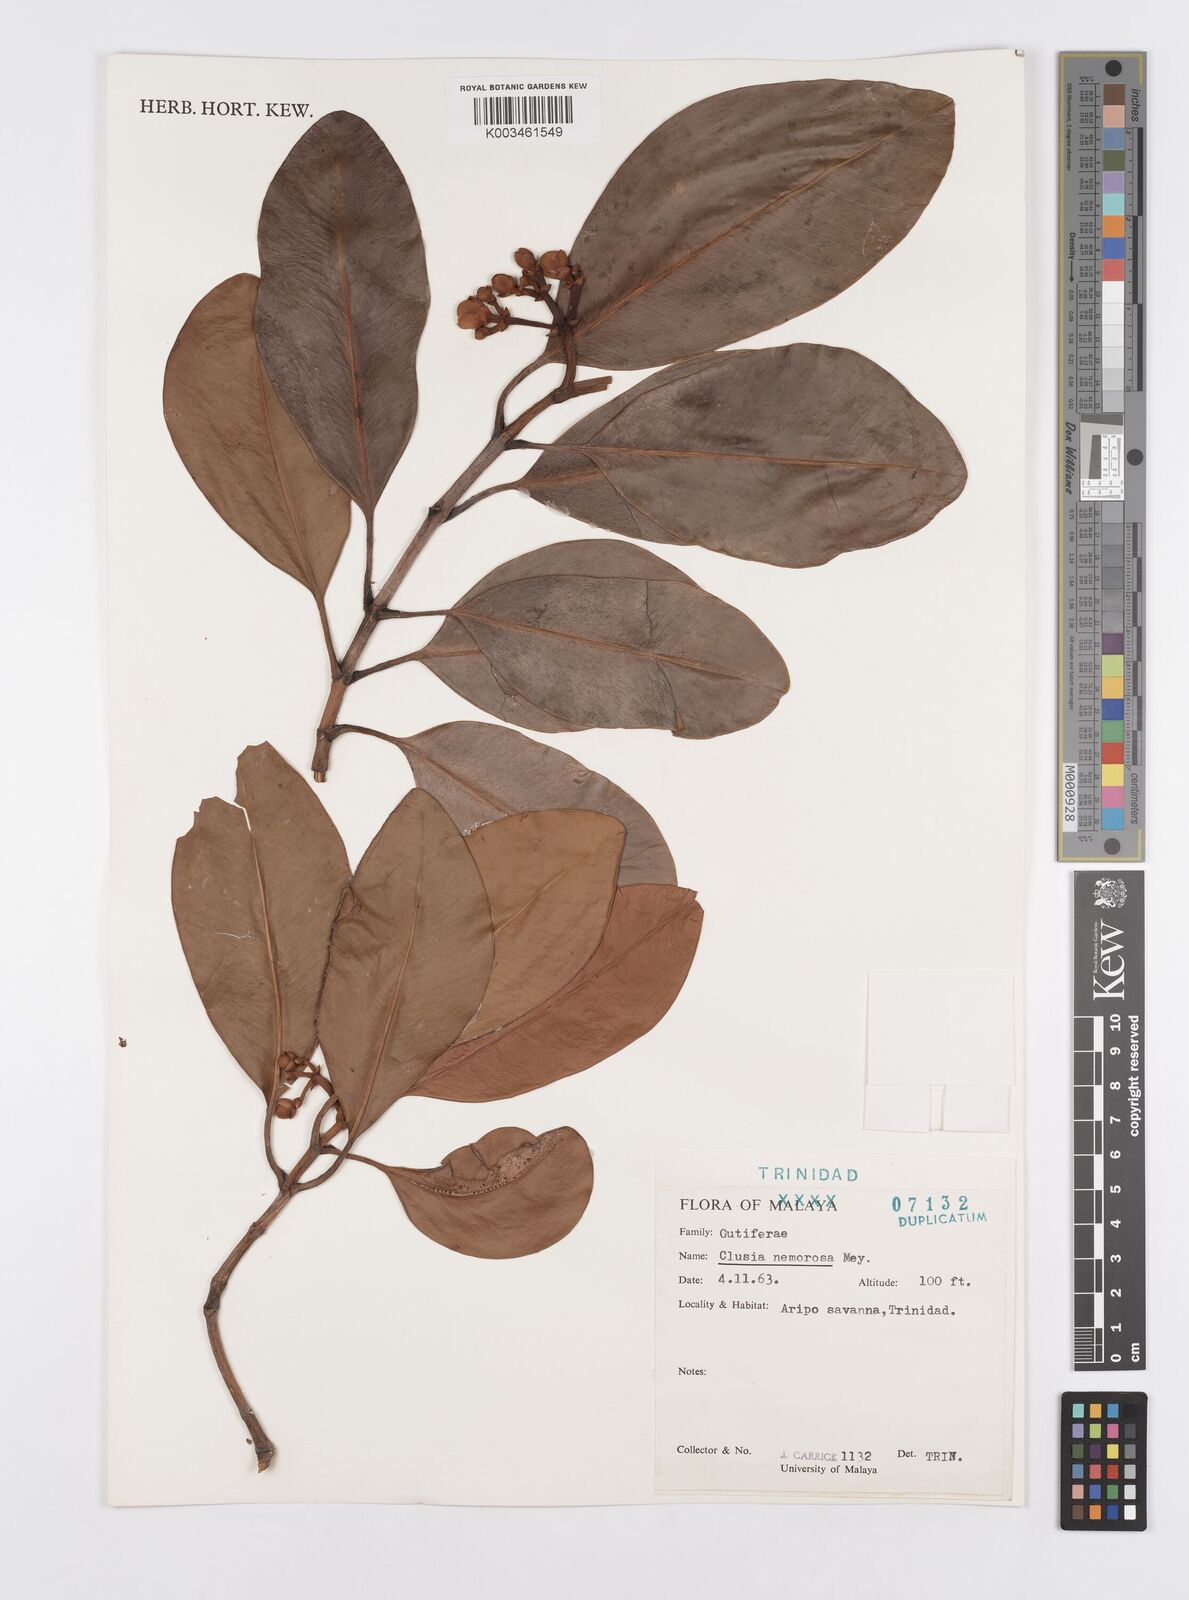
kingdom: Plantae
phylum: Tracheophyta
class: Magnoliopsida
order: Malpighiales
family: Clusiaceae
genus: Clusia
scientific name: Clusia nemorosa
